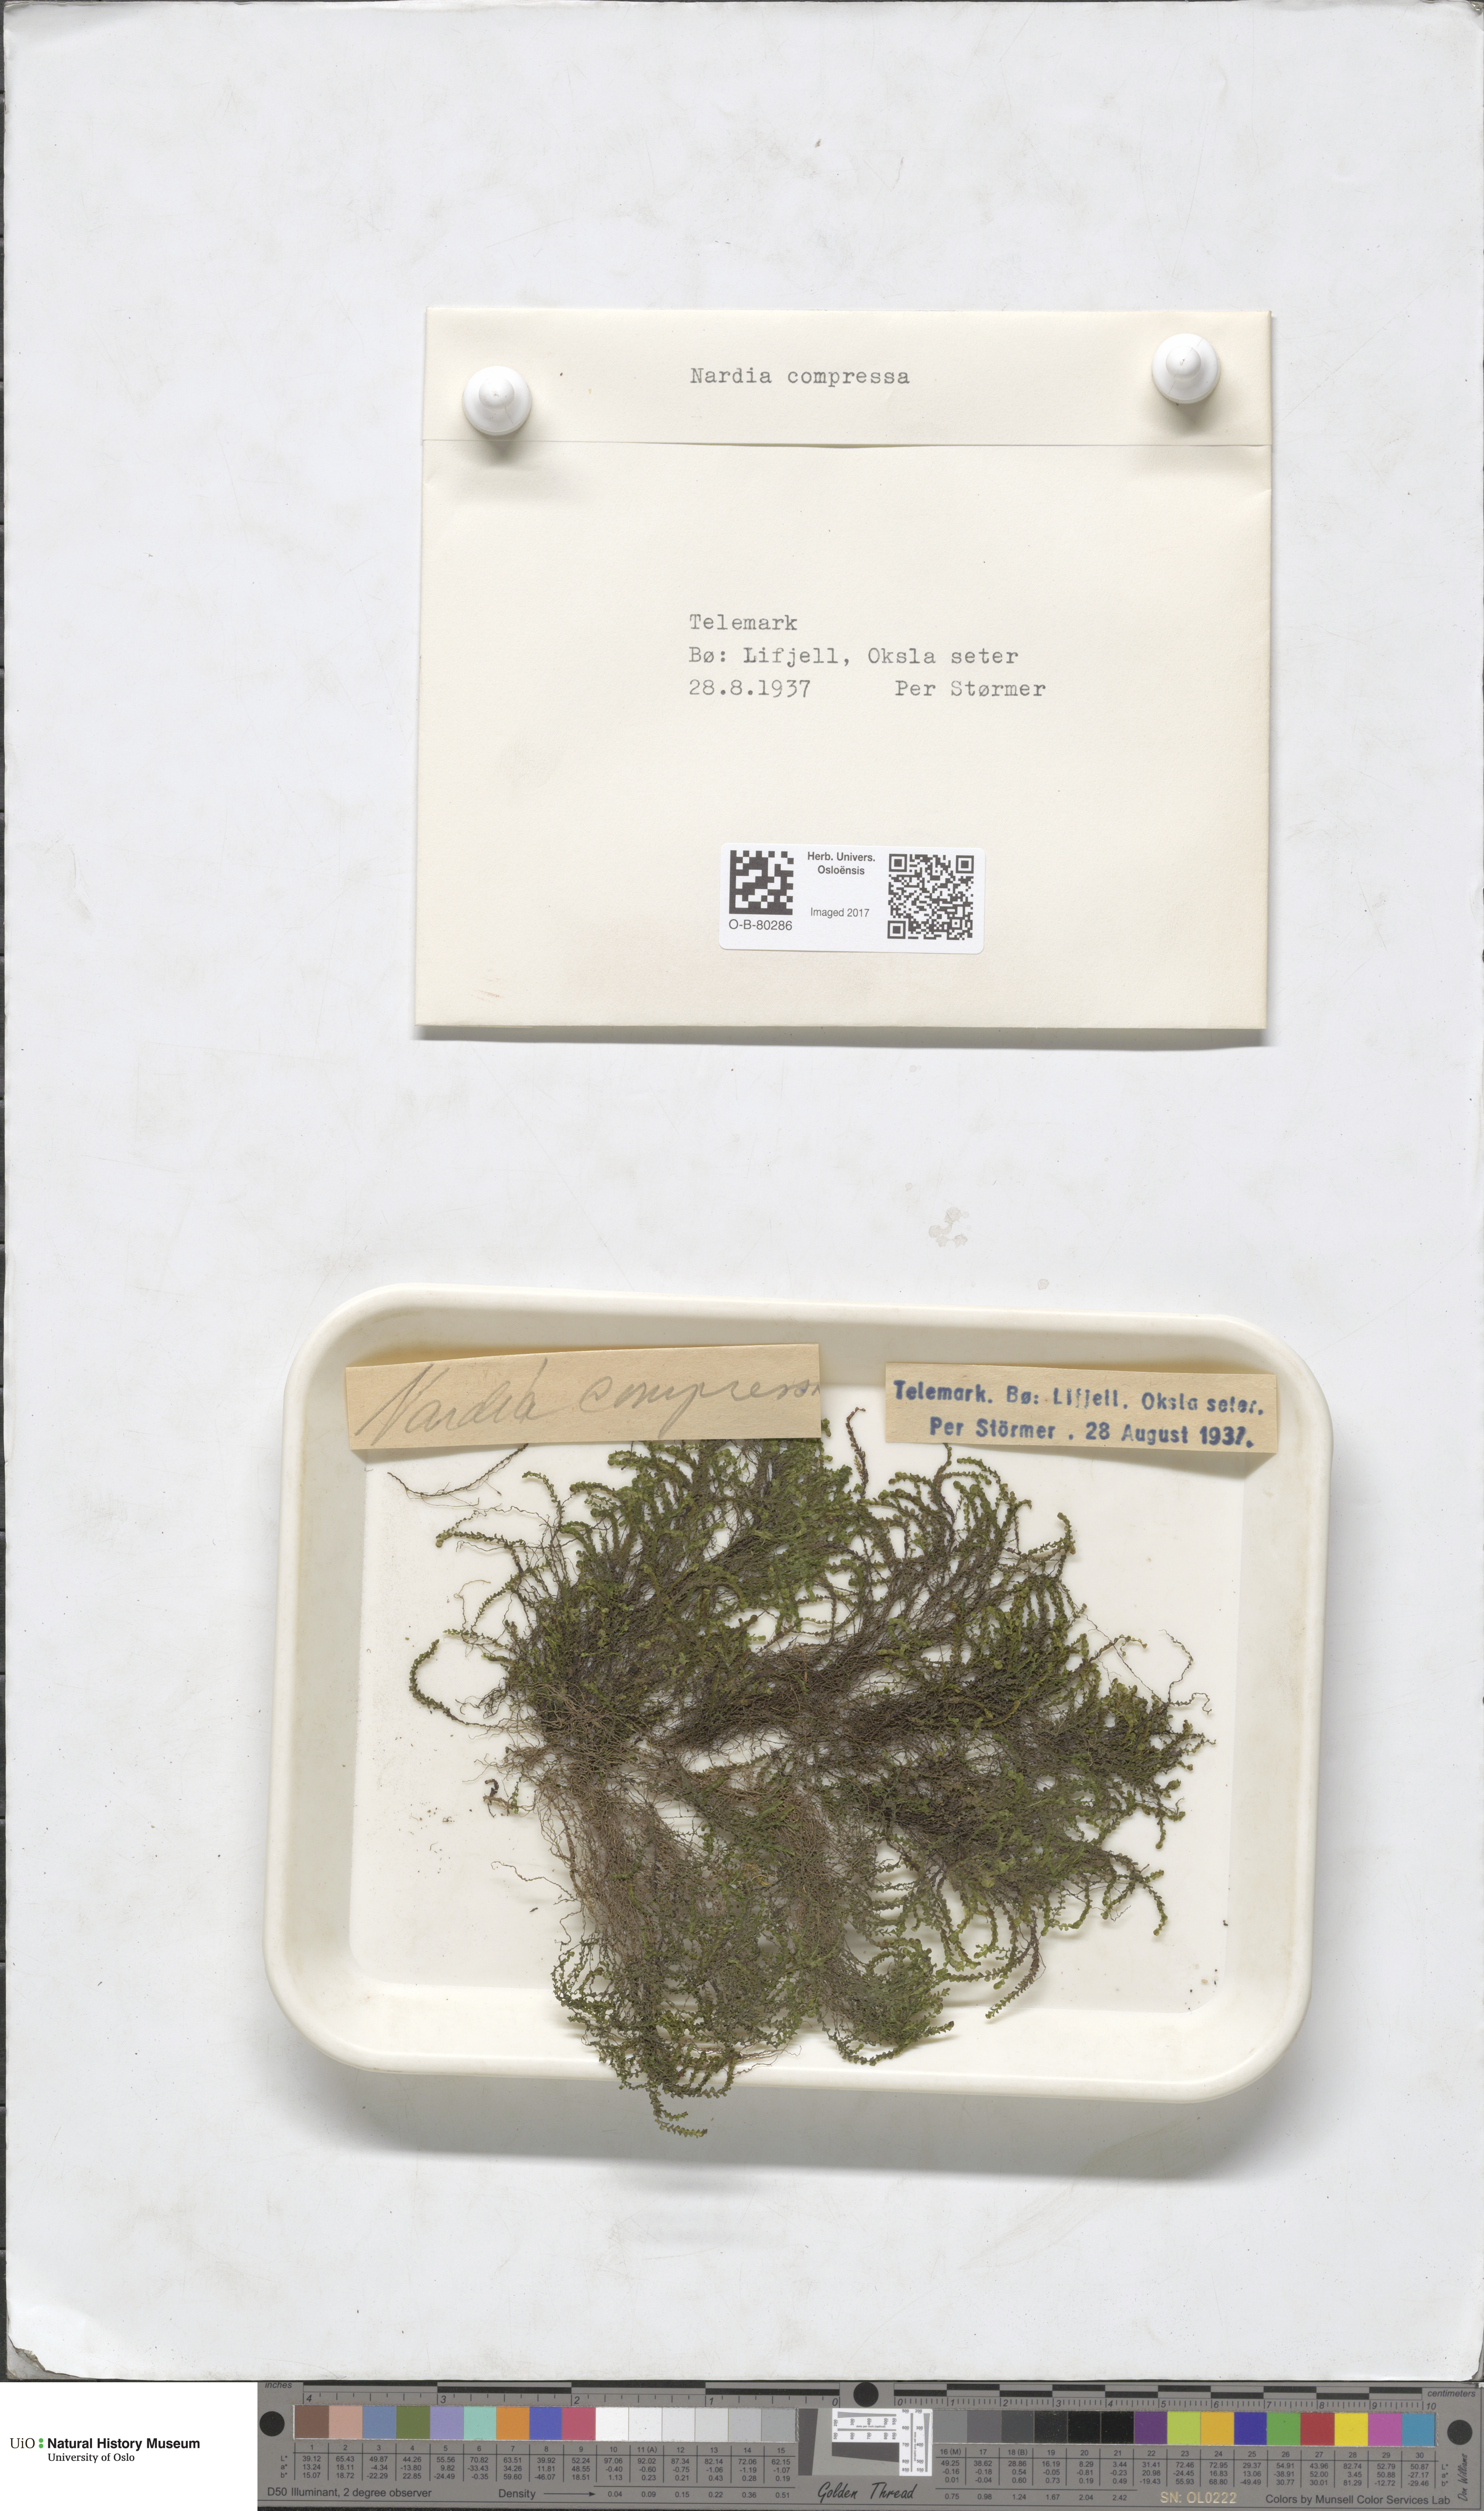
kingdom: Plantae
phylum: Marchantiophyta
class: Jungermanniopsida
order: Jungermanniales
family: Gymnomitriaceae
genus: Nardia
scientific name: Nardia compressa
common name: Compressed flapwort
